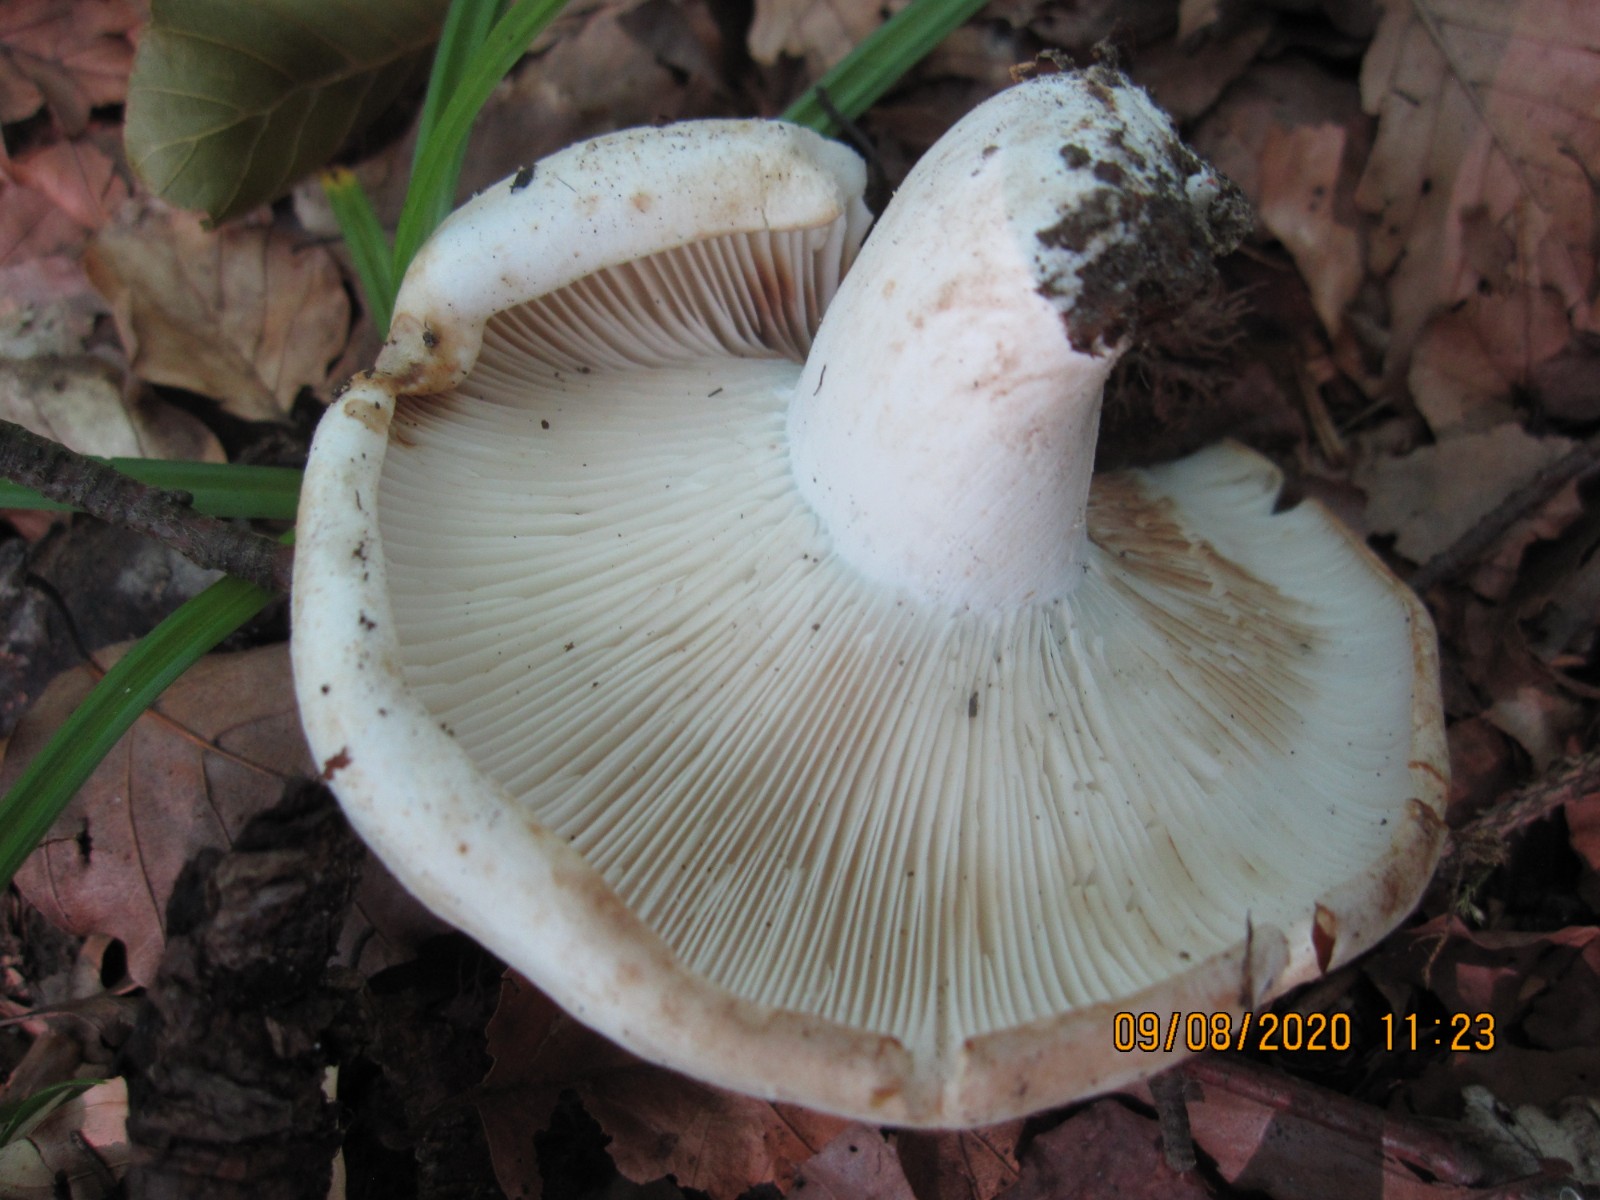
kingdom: Fungi
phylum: Basidiomycota
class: Agaricomycetes
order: Russulales
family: Russulaceae
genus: Russula
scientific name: Russula chloroides
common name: grønhalset tragt-skørhat
